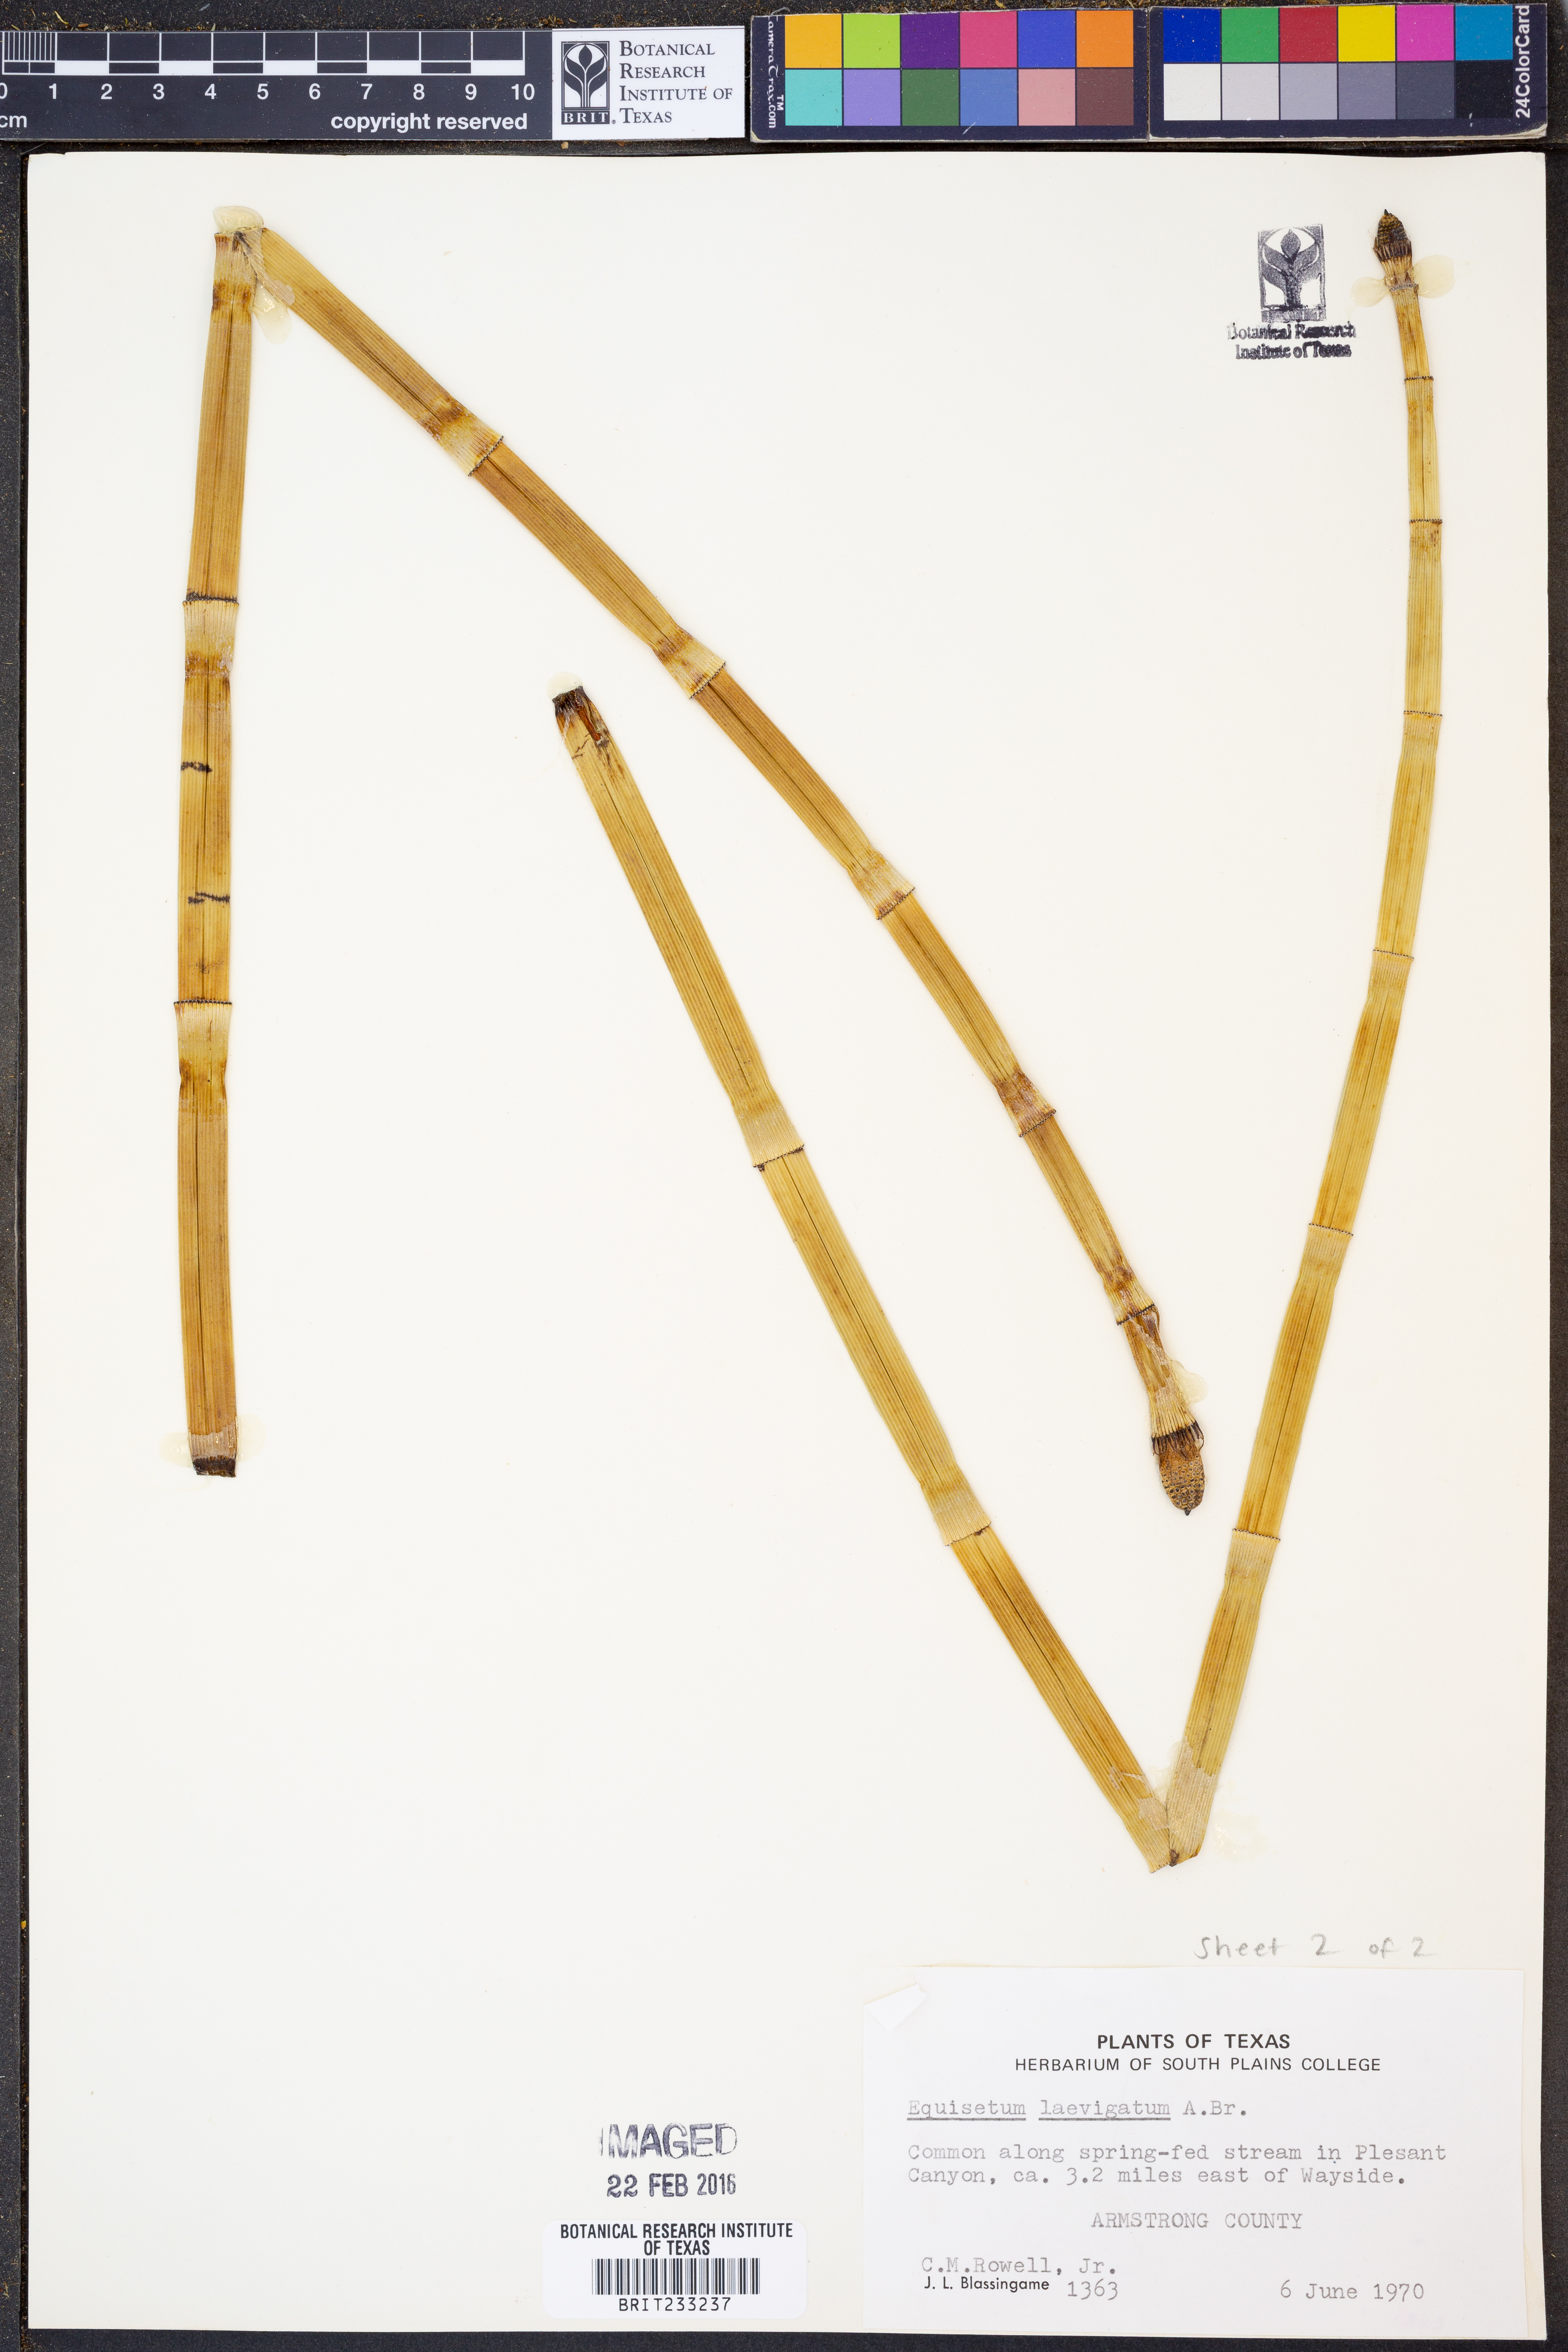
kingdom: Plantae
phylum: Tracheophyta
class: Polypodiopsida
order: Equisetales
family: Equisetaceae
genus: Equisetum
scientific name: Equisetum laevigatum
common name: Smooth scouring-rush
